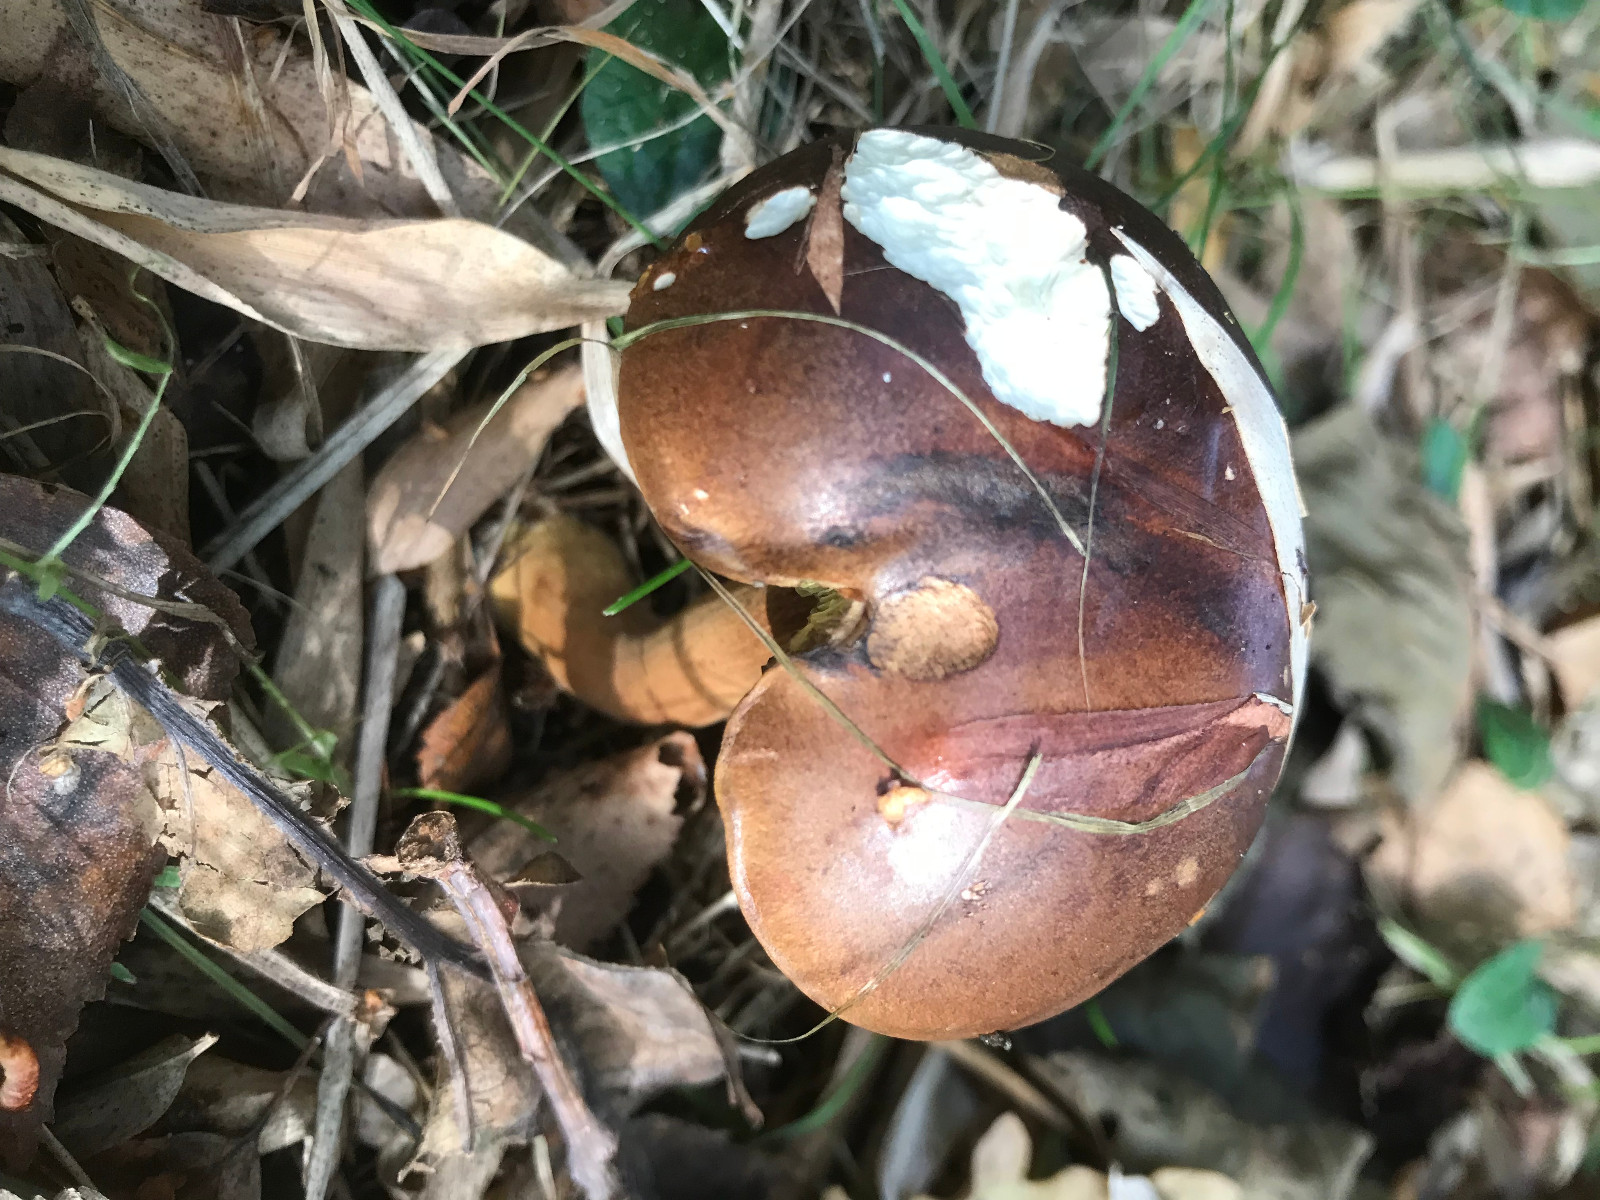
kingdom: Fungi
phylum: Basidiomycota
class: Agaricomycetes
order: Boletales
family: Boletaceae
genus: Imleria
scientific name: Imleria badia
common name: brunstokket rørhat
